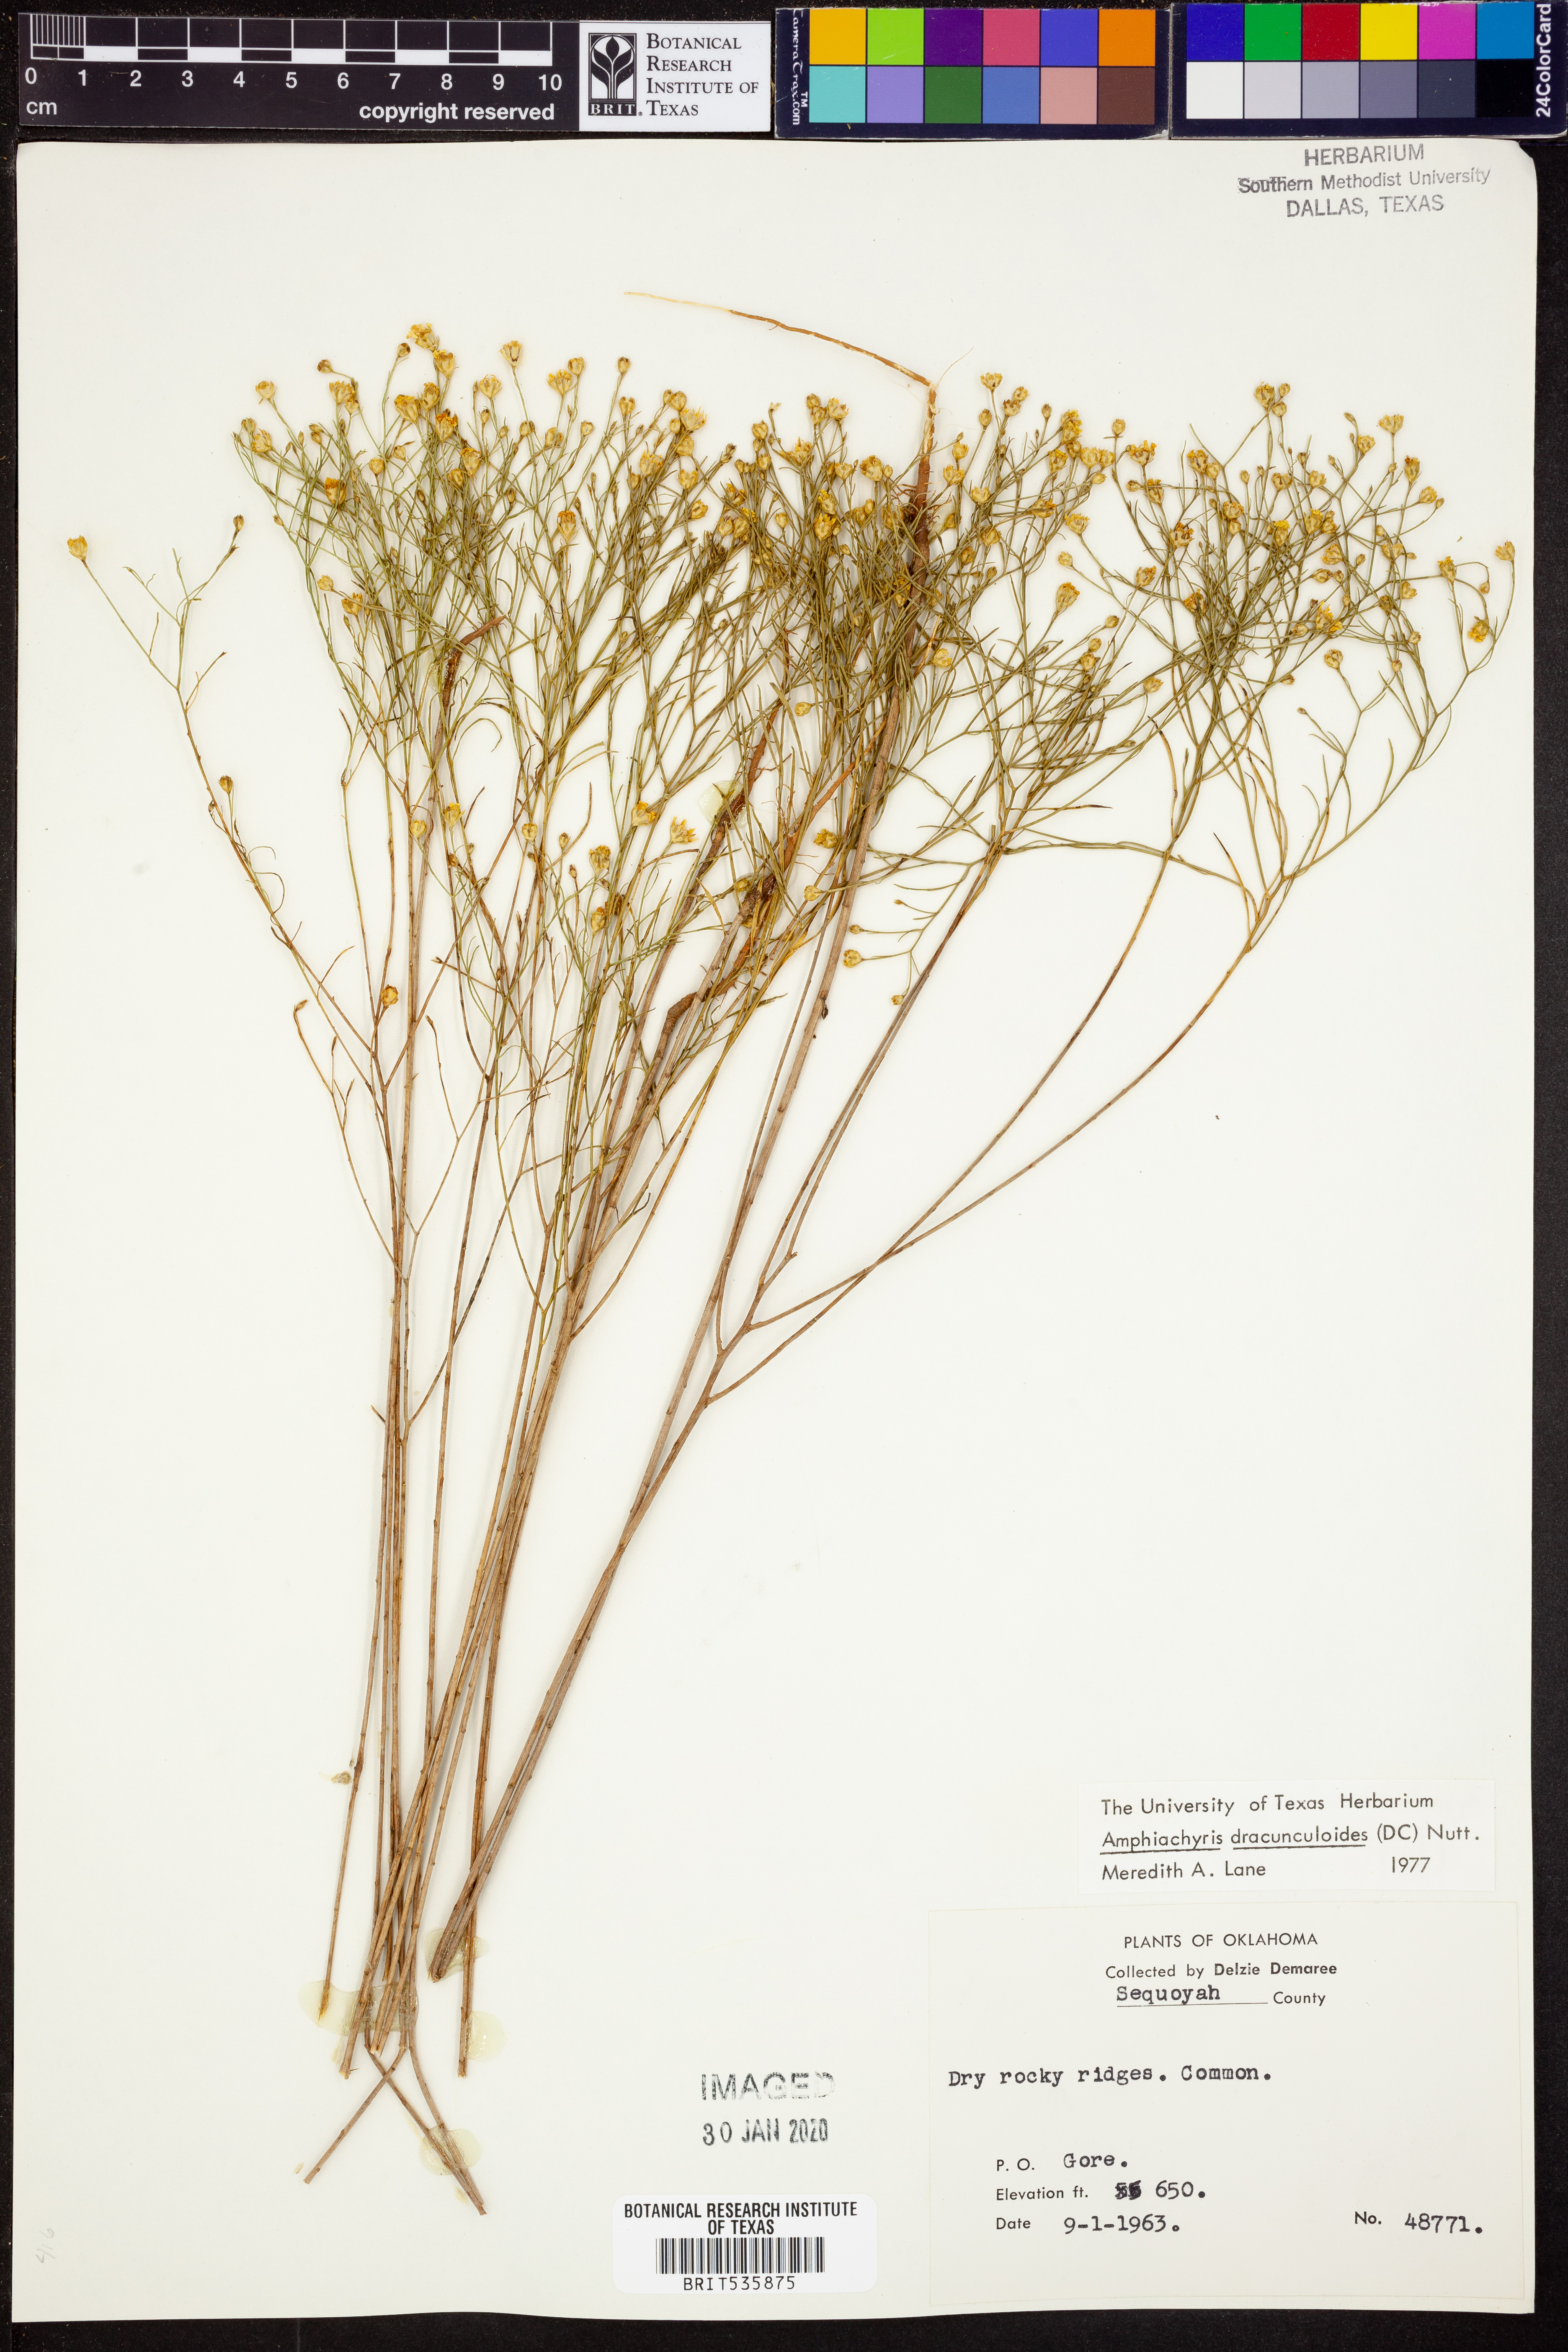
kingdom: Plantae
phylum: Tracheophyta
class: Magnoliopsida
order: Asterales
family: Asteraceae
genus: Amphiachyris
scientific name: Amphiachyris dracunculoides
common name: Broomweed
